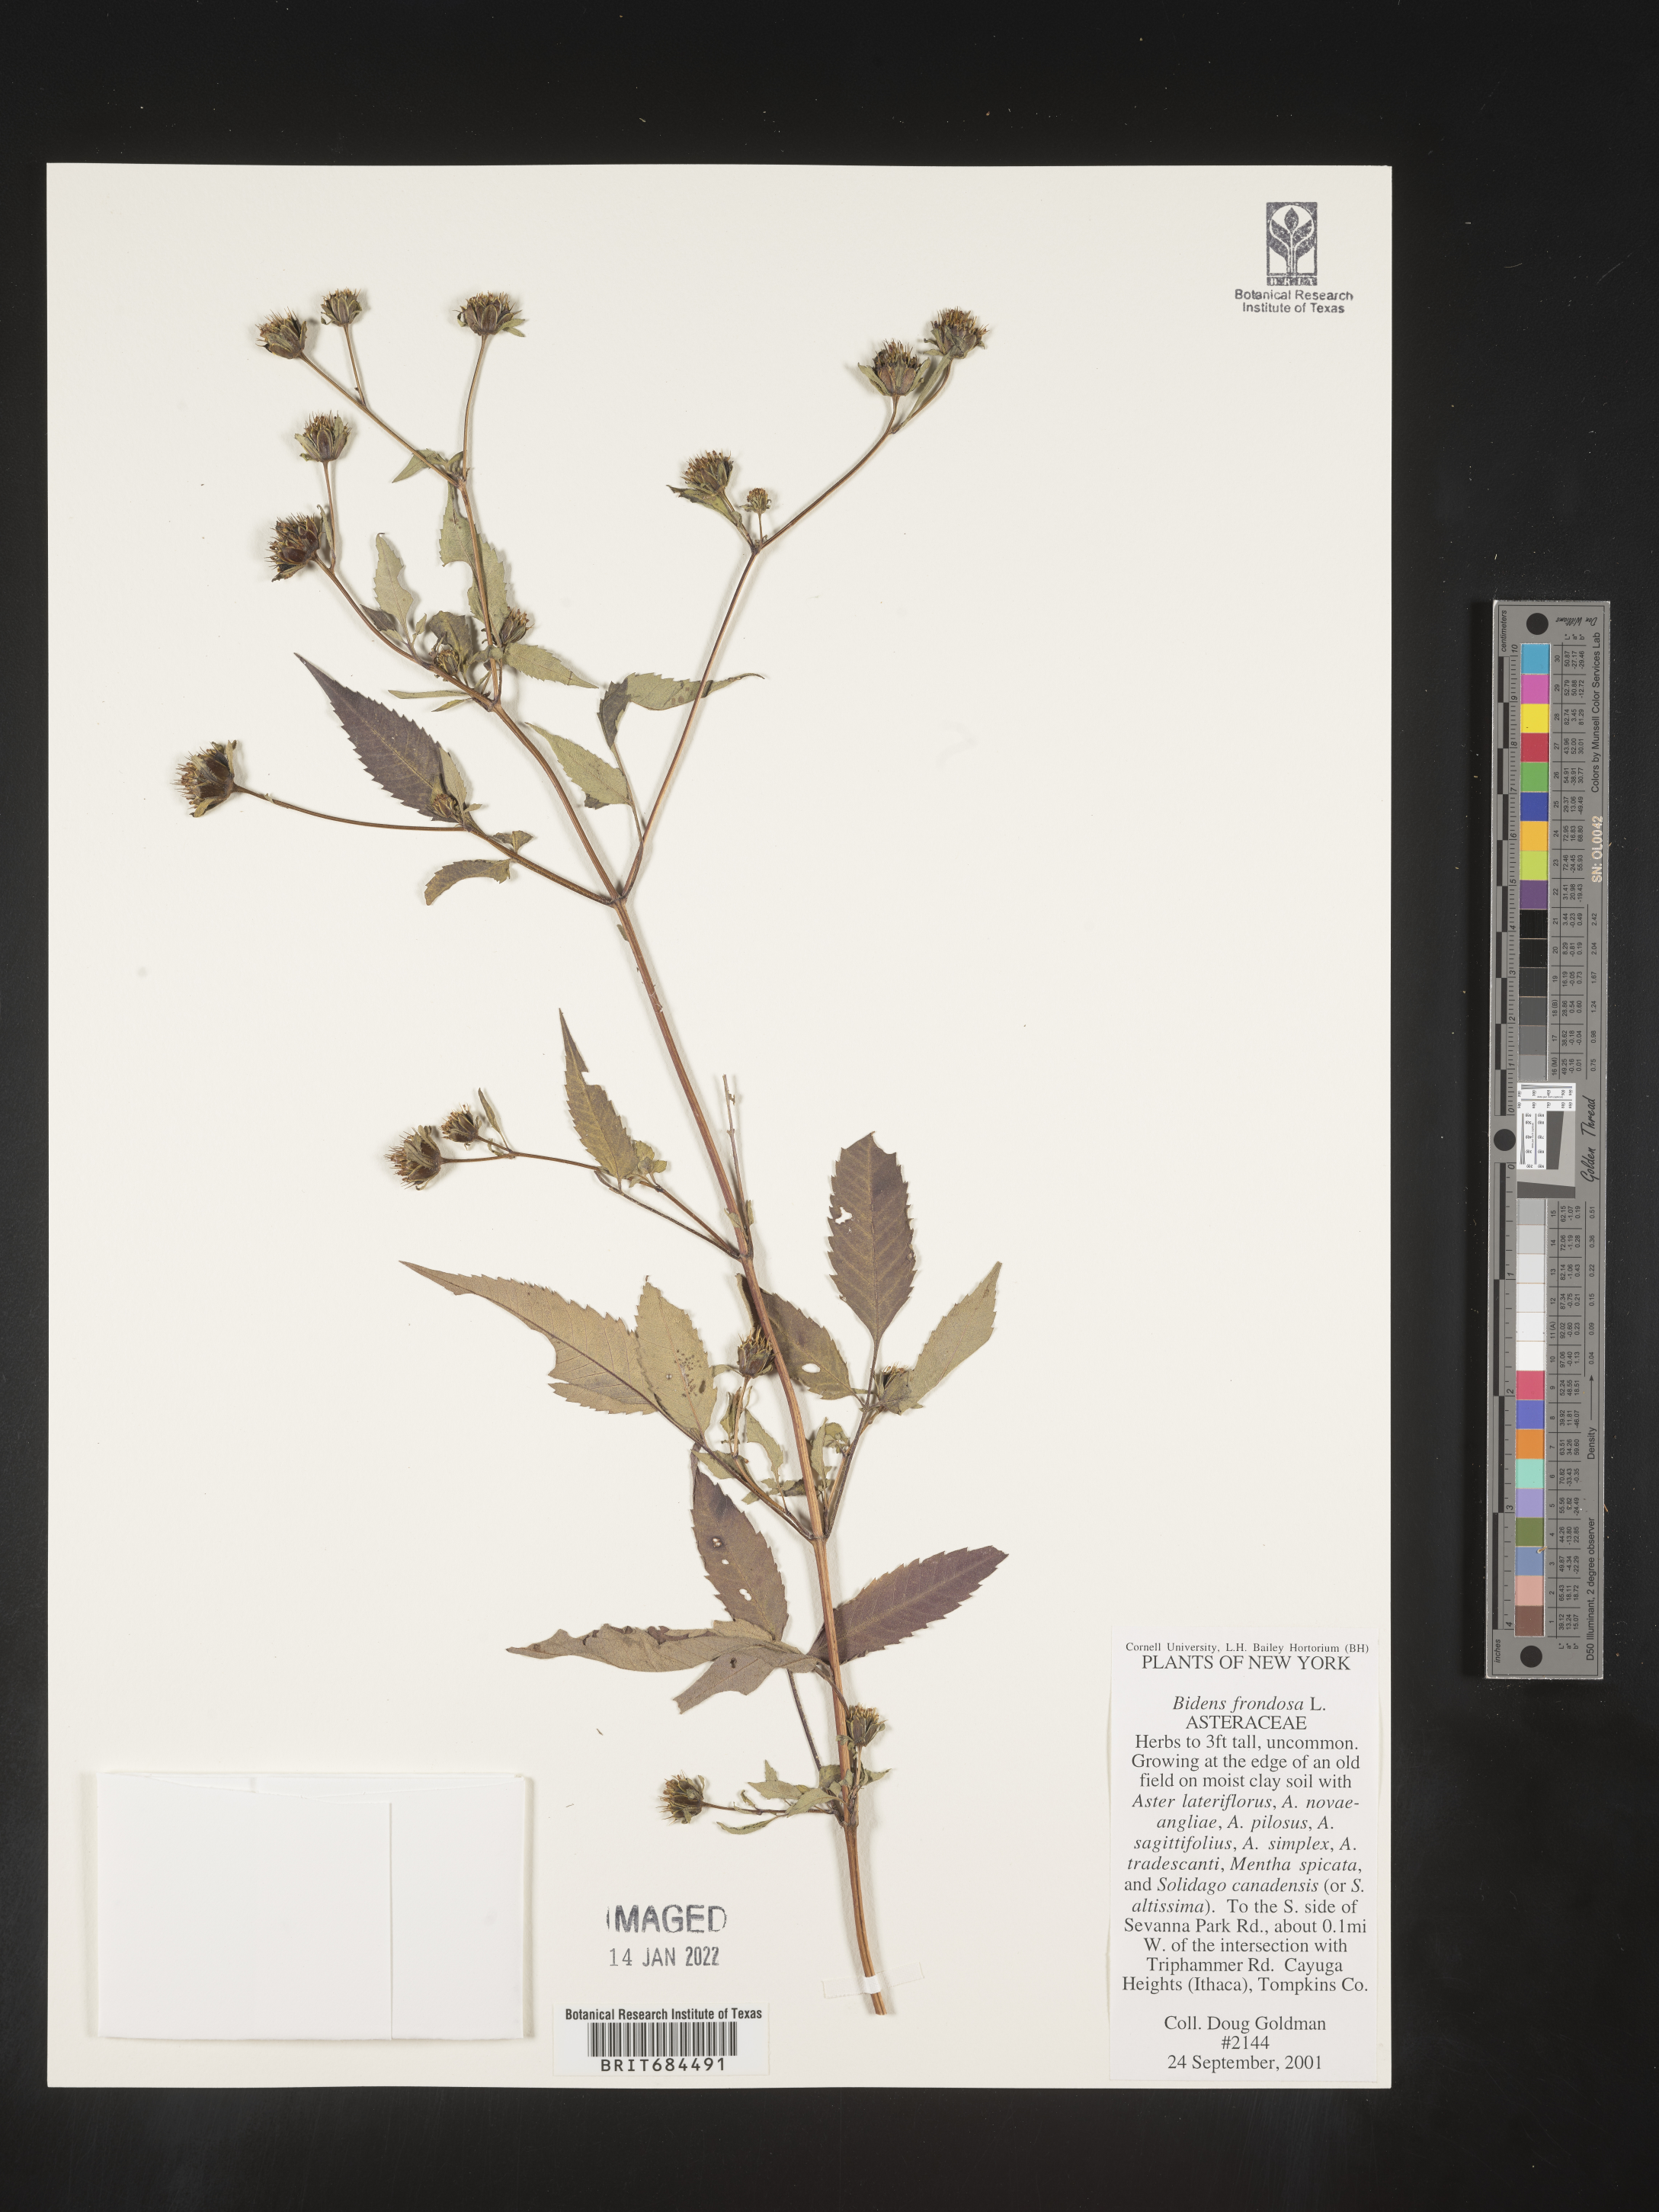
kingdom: Plantae
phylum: Tracheophyta
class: Magnoliopsida
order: Asterales
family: Asteraceae
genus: Bidens
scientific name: Bidens frondosa
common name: Beggarticks
